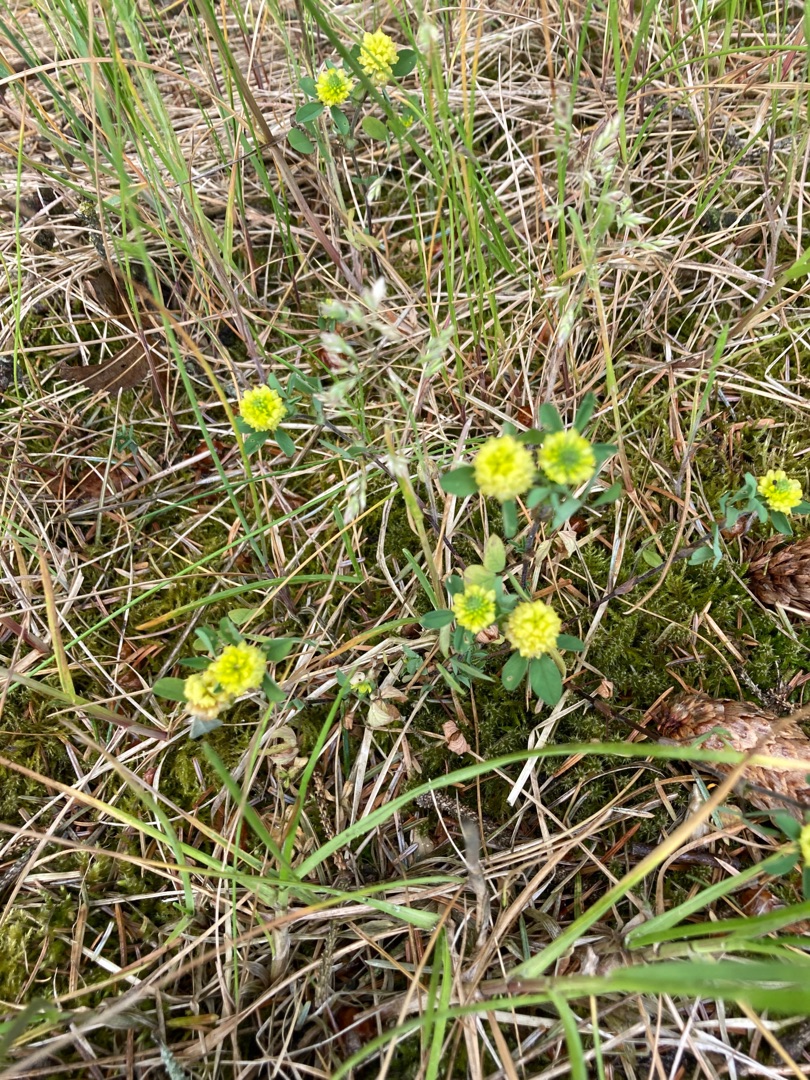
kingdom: Plantae
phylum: Tracheophyta
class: Magnoliopsida
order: Fabales
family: Fabaceae
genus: Trifolium
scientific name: Trifolium campestre
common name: Gul kløver
